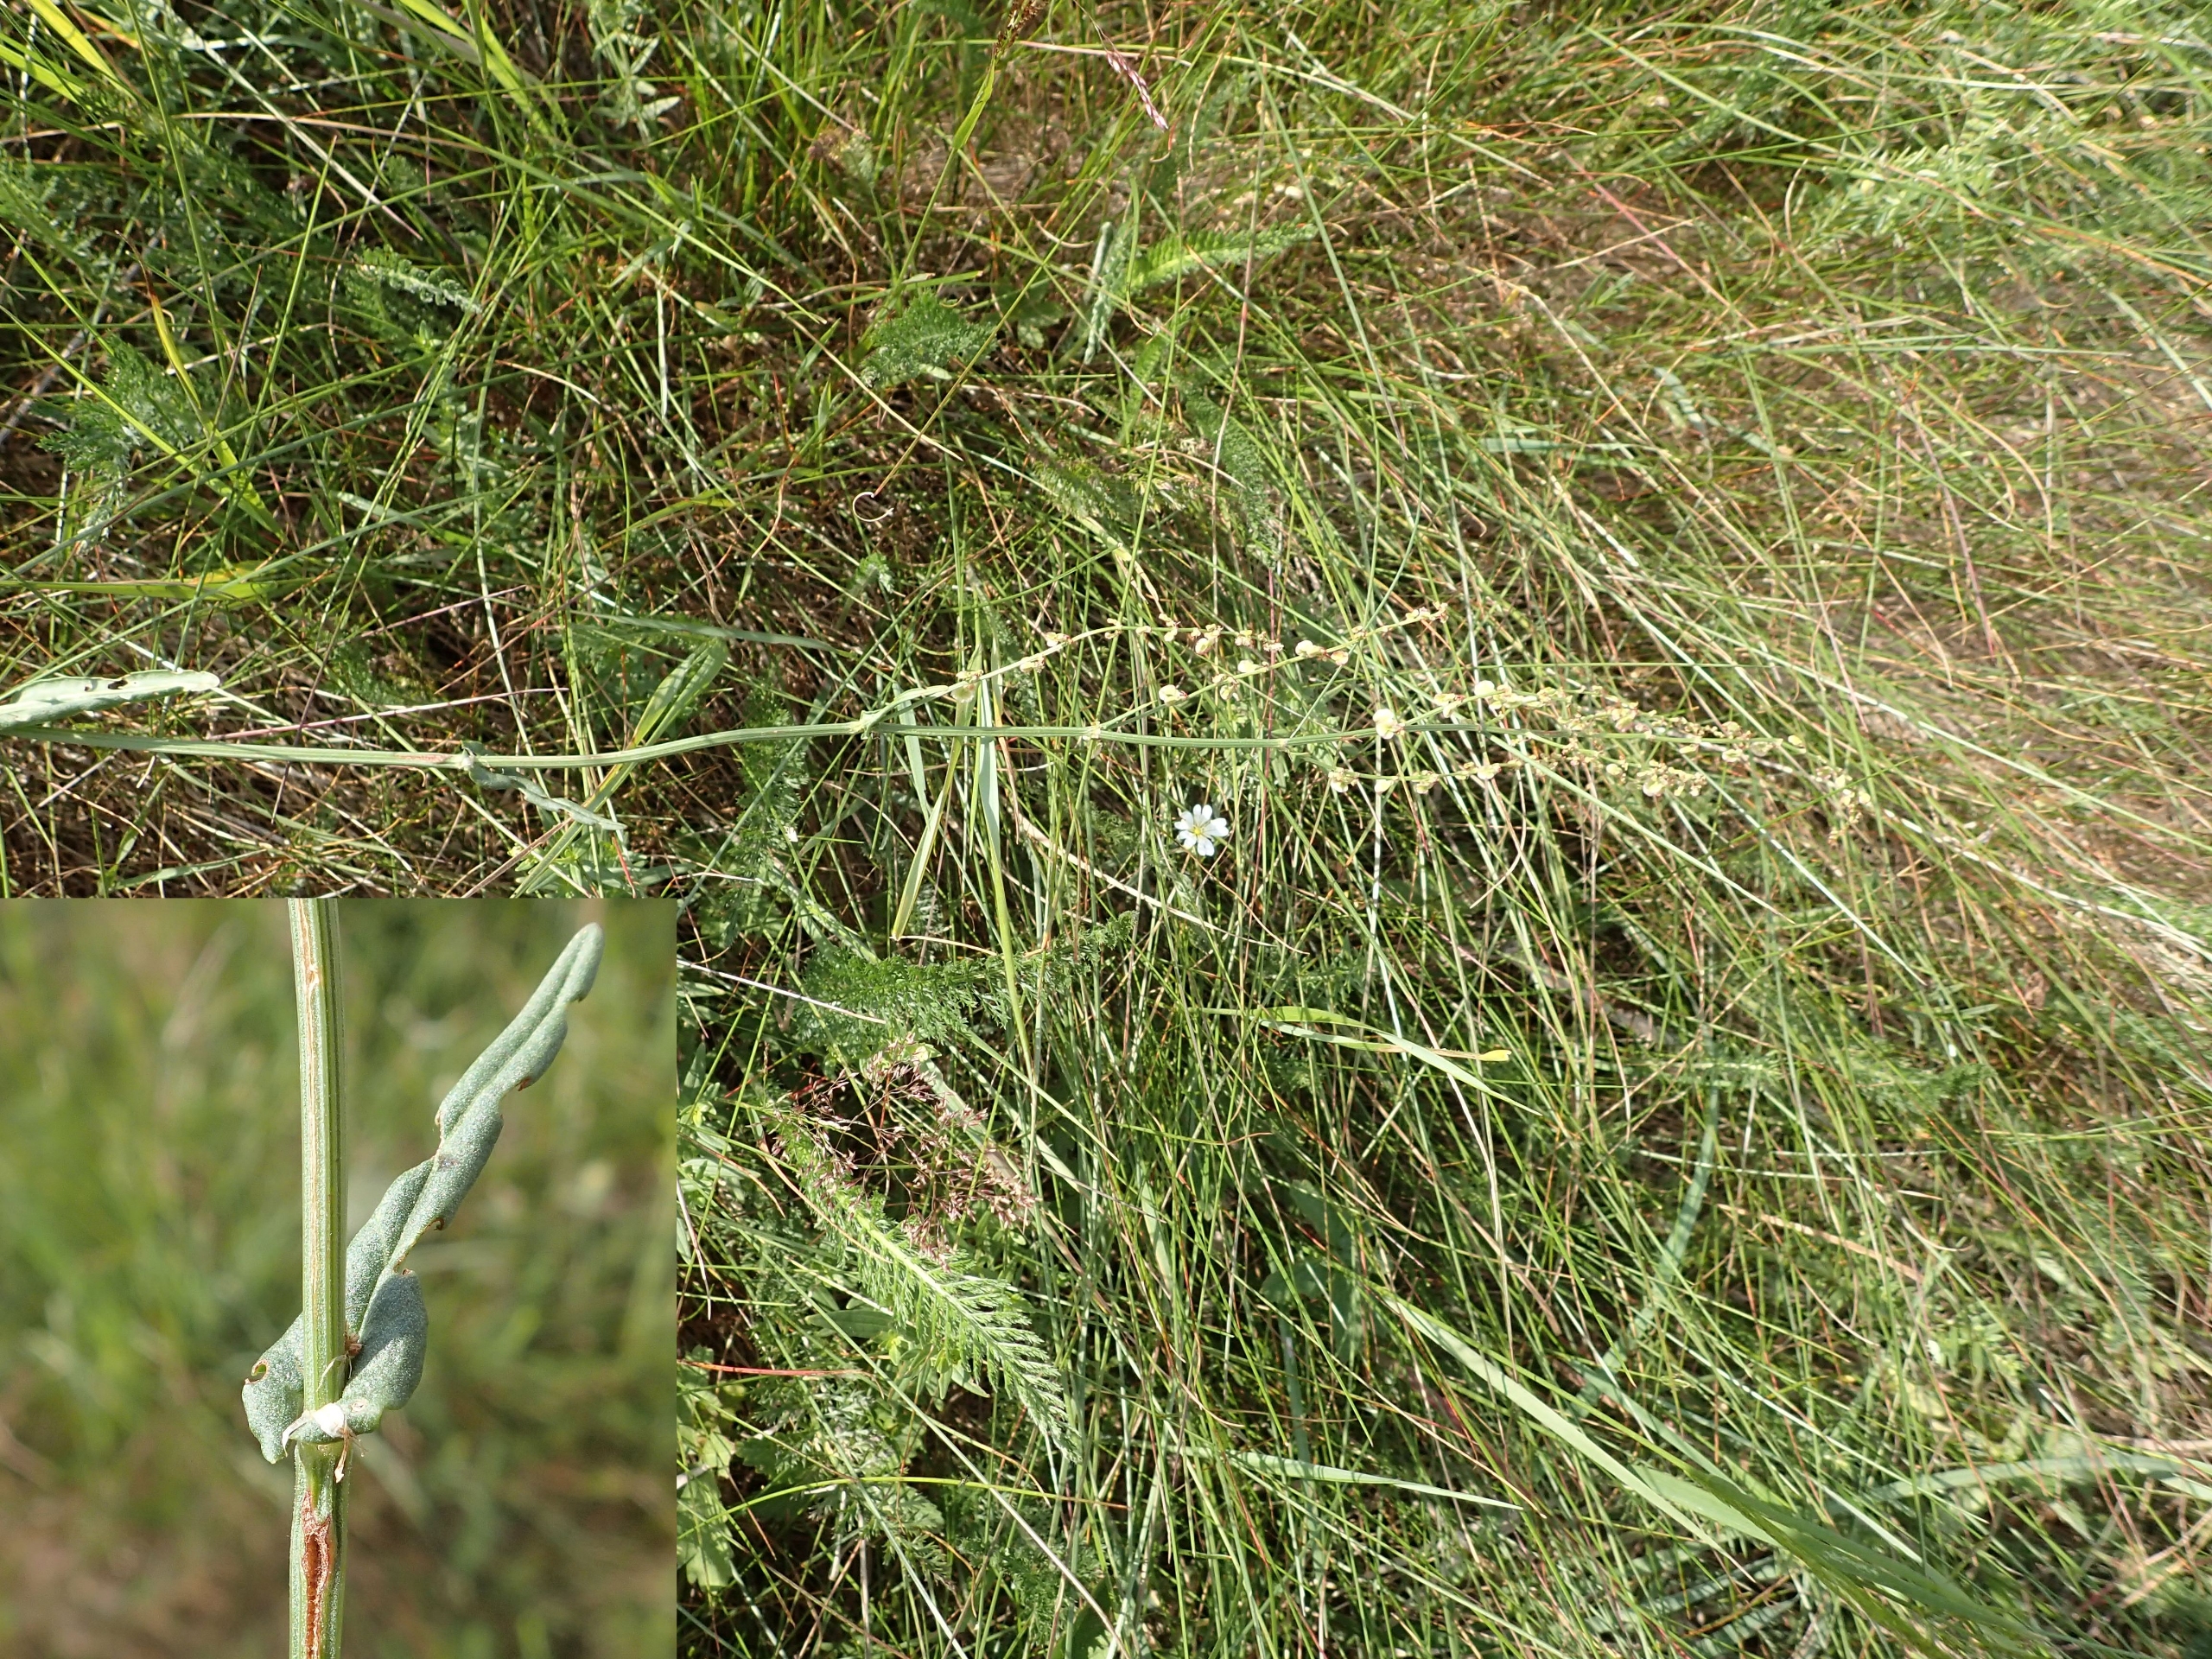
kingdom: Plantae
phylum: Tracheophyta
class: Magnoliopsida
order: Caryophyllales
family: Polygonaceae
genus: Rumex
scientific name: Rumex acetosa
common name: Almindelig syre
